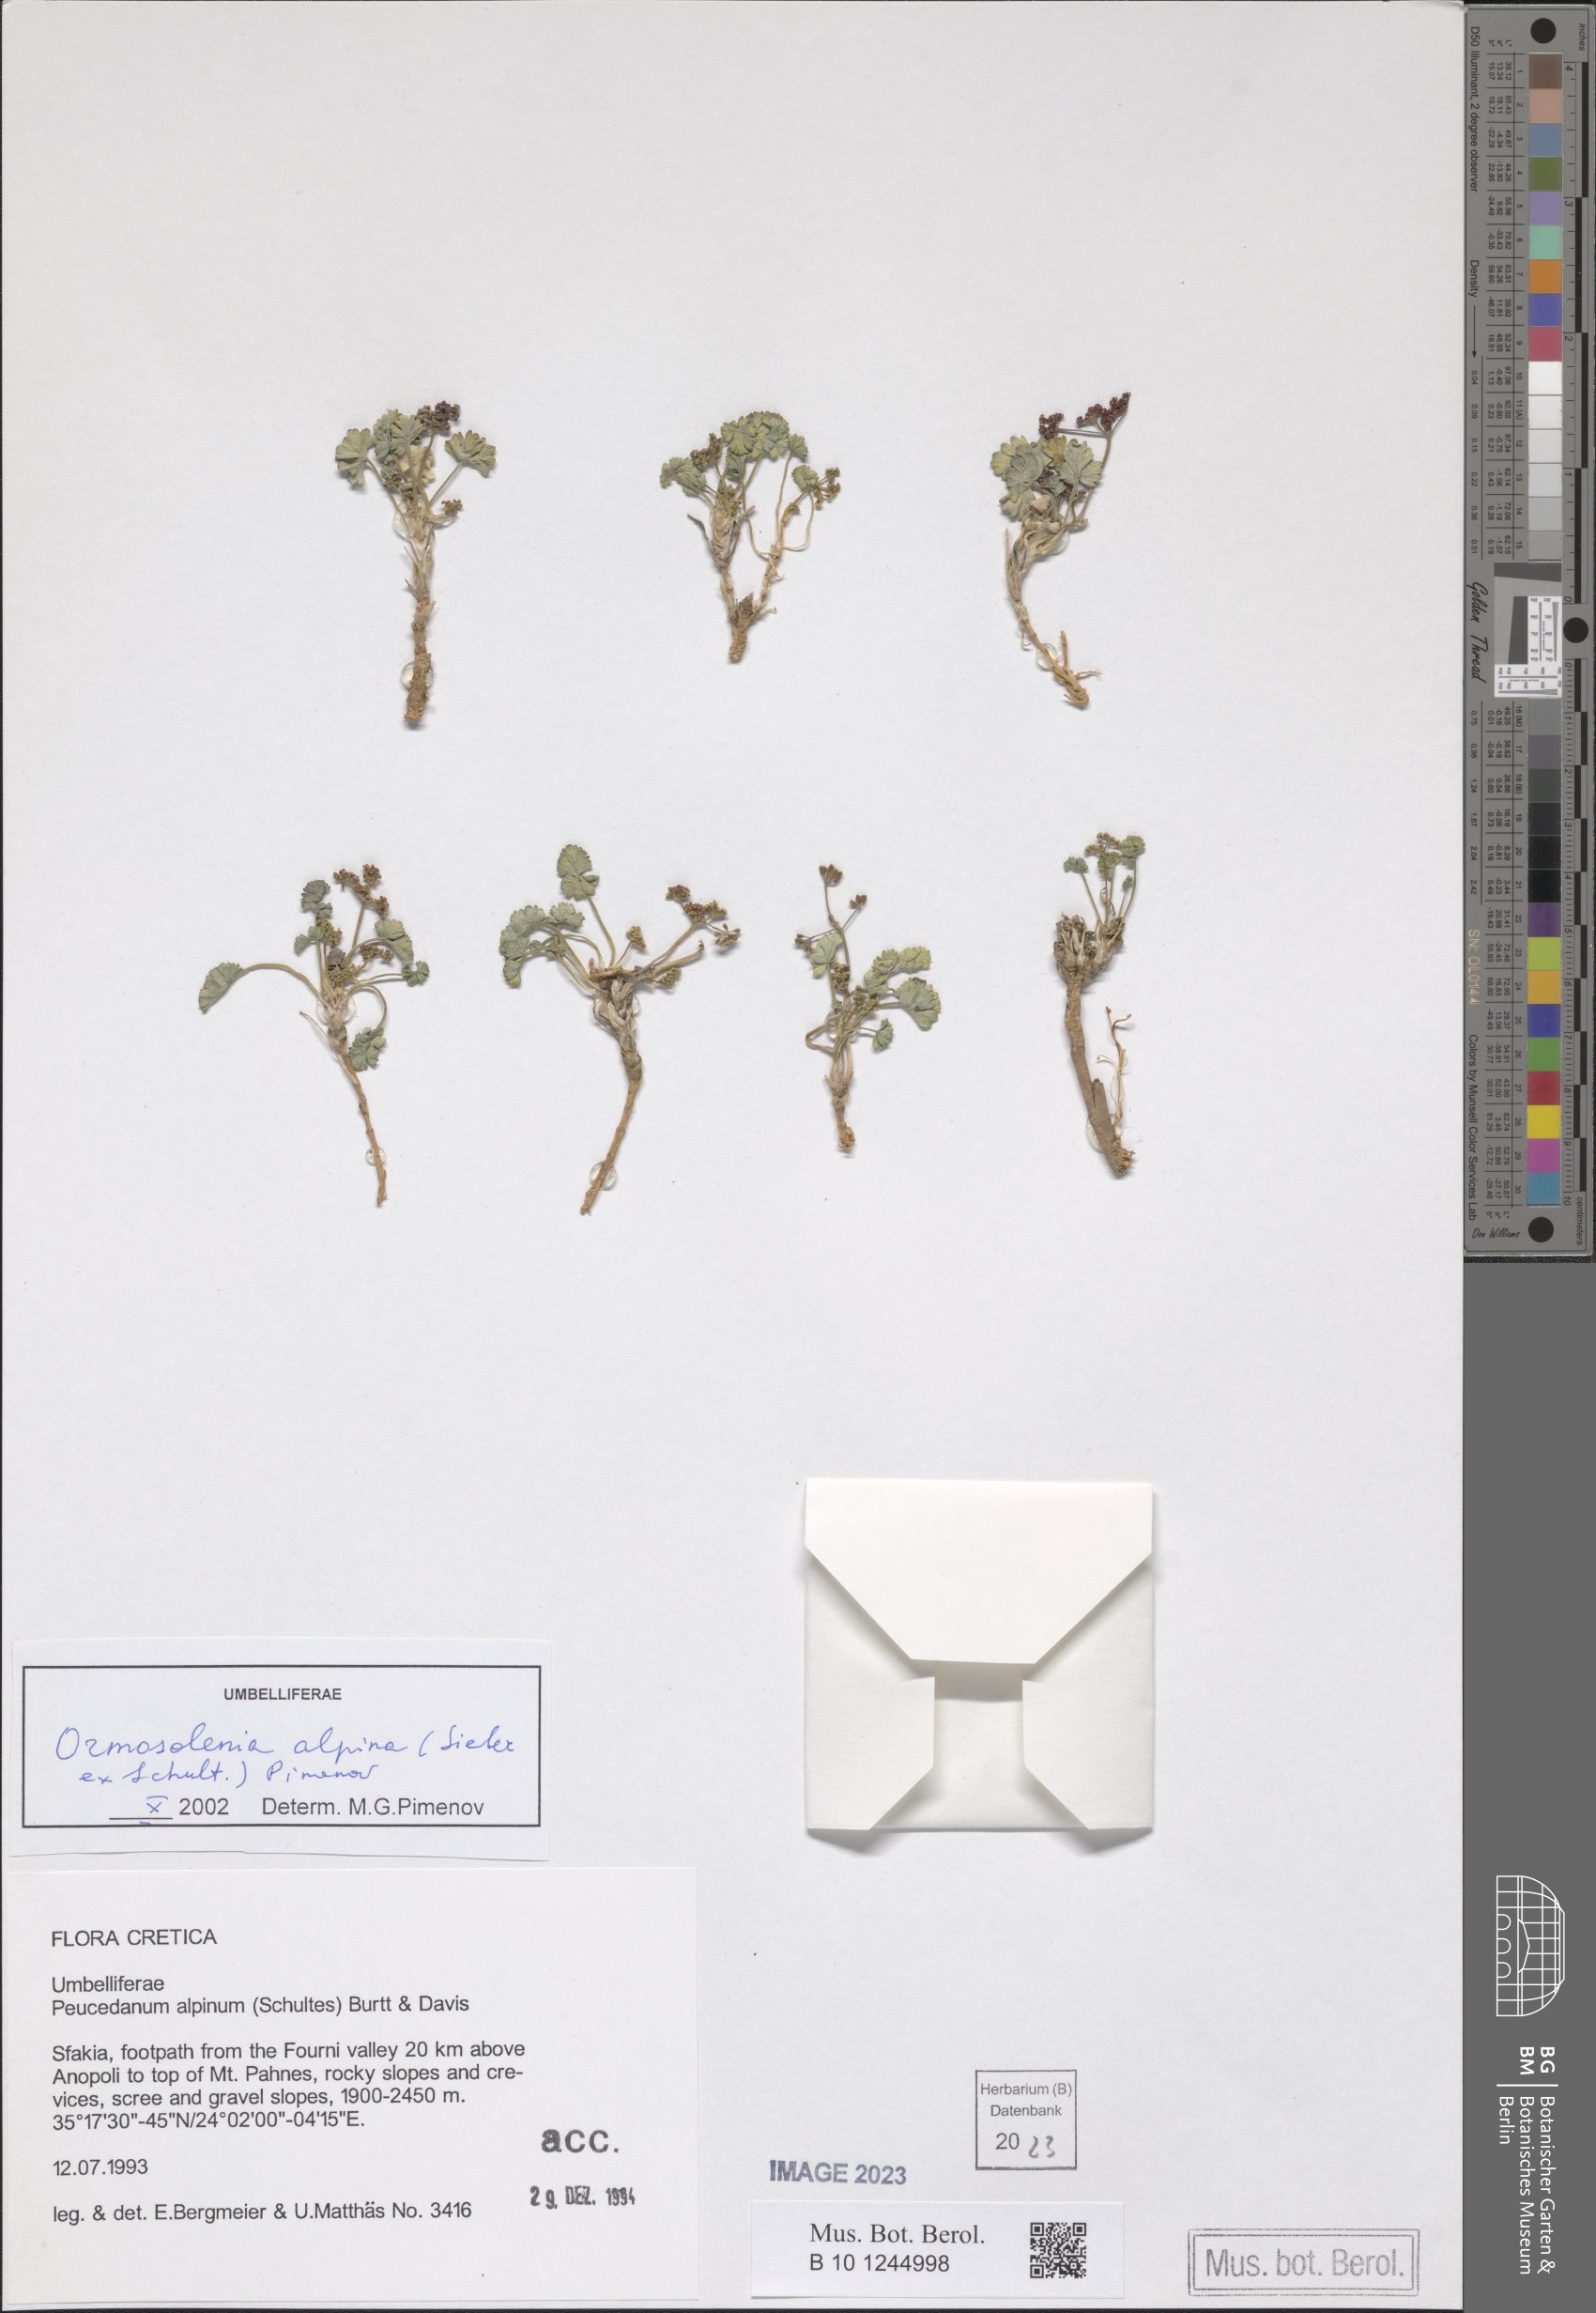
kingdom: Plantae
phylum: Tracheophyta
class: Magnoliopsida
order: Apiales
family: Apiaceae
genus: Ormosolenia
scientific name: Ormosolenia alpina
